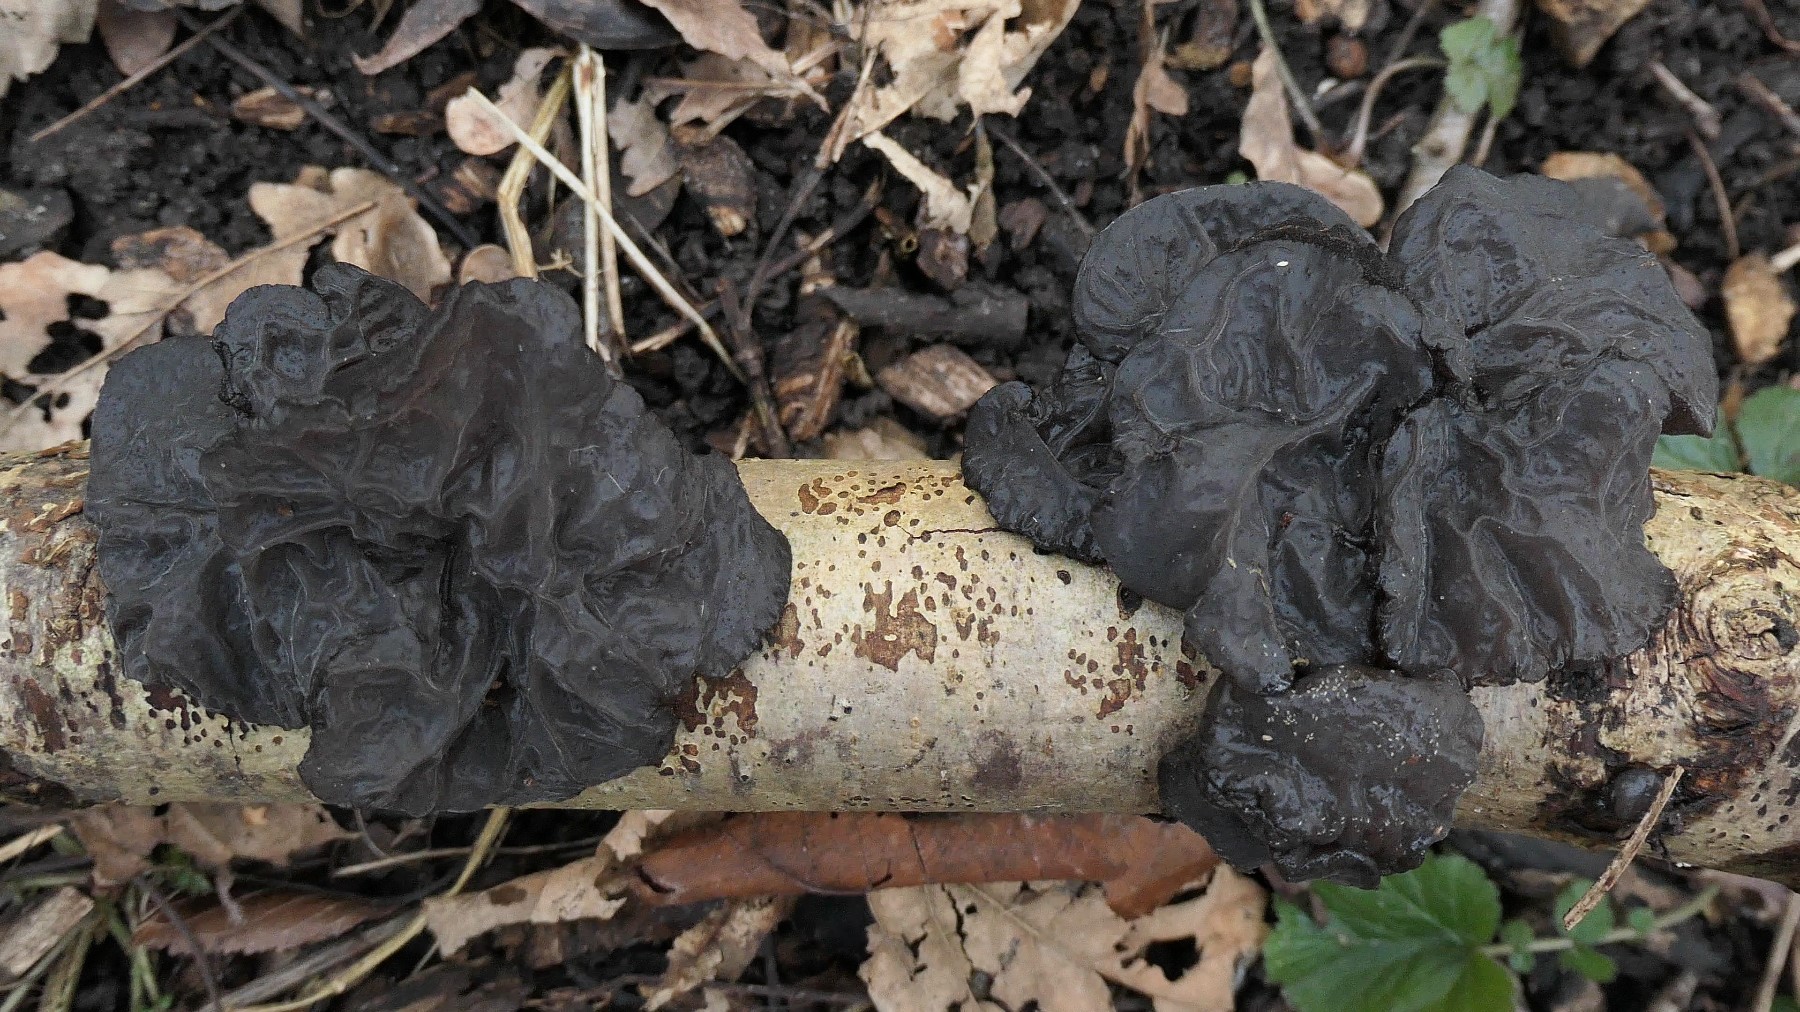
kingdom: Fungi
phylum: Basidiomycota
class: Agaricomycetes
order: Auriculariales
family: Auriculariaceae
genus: Exidia
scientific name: Exidia glandulosa
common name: ege-bævretop
